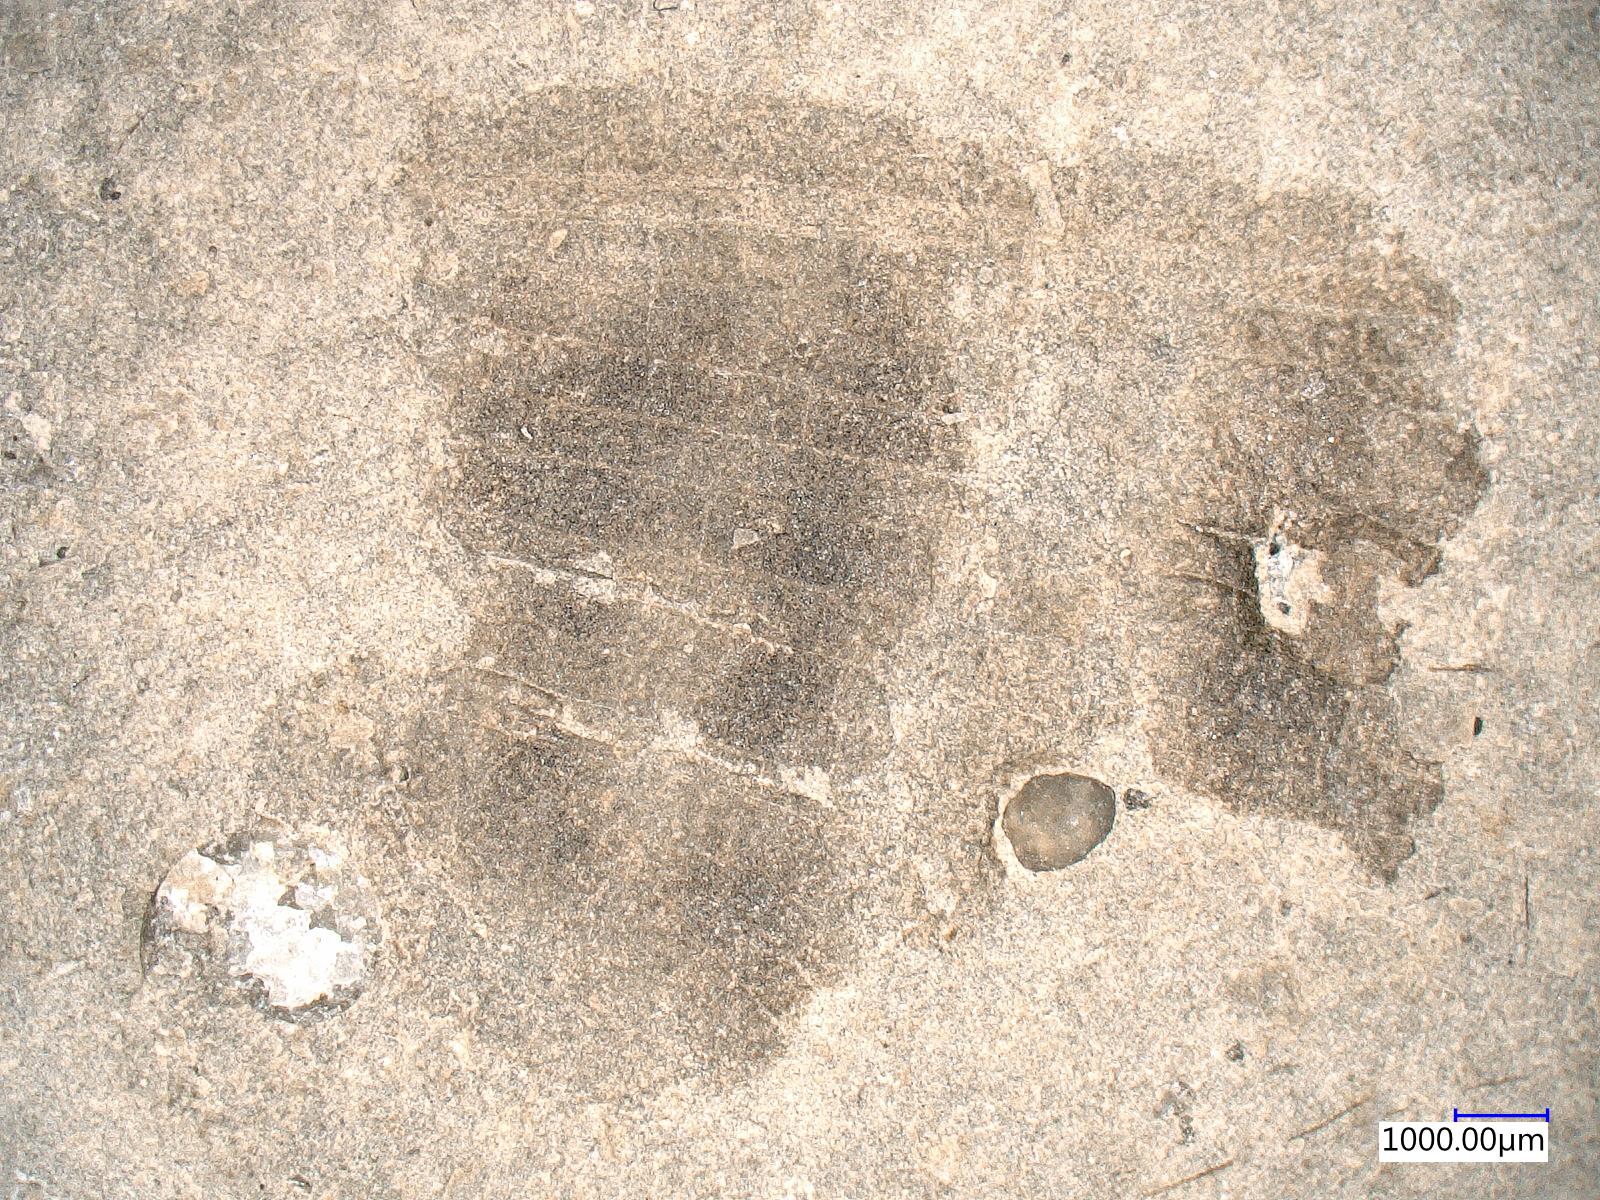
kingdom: Animalia
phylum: Arthropoda
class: Insecta
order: Neuroptera
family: Kalligrammatidae
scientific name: Kalligrammatidae
